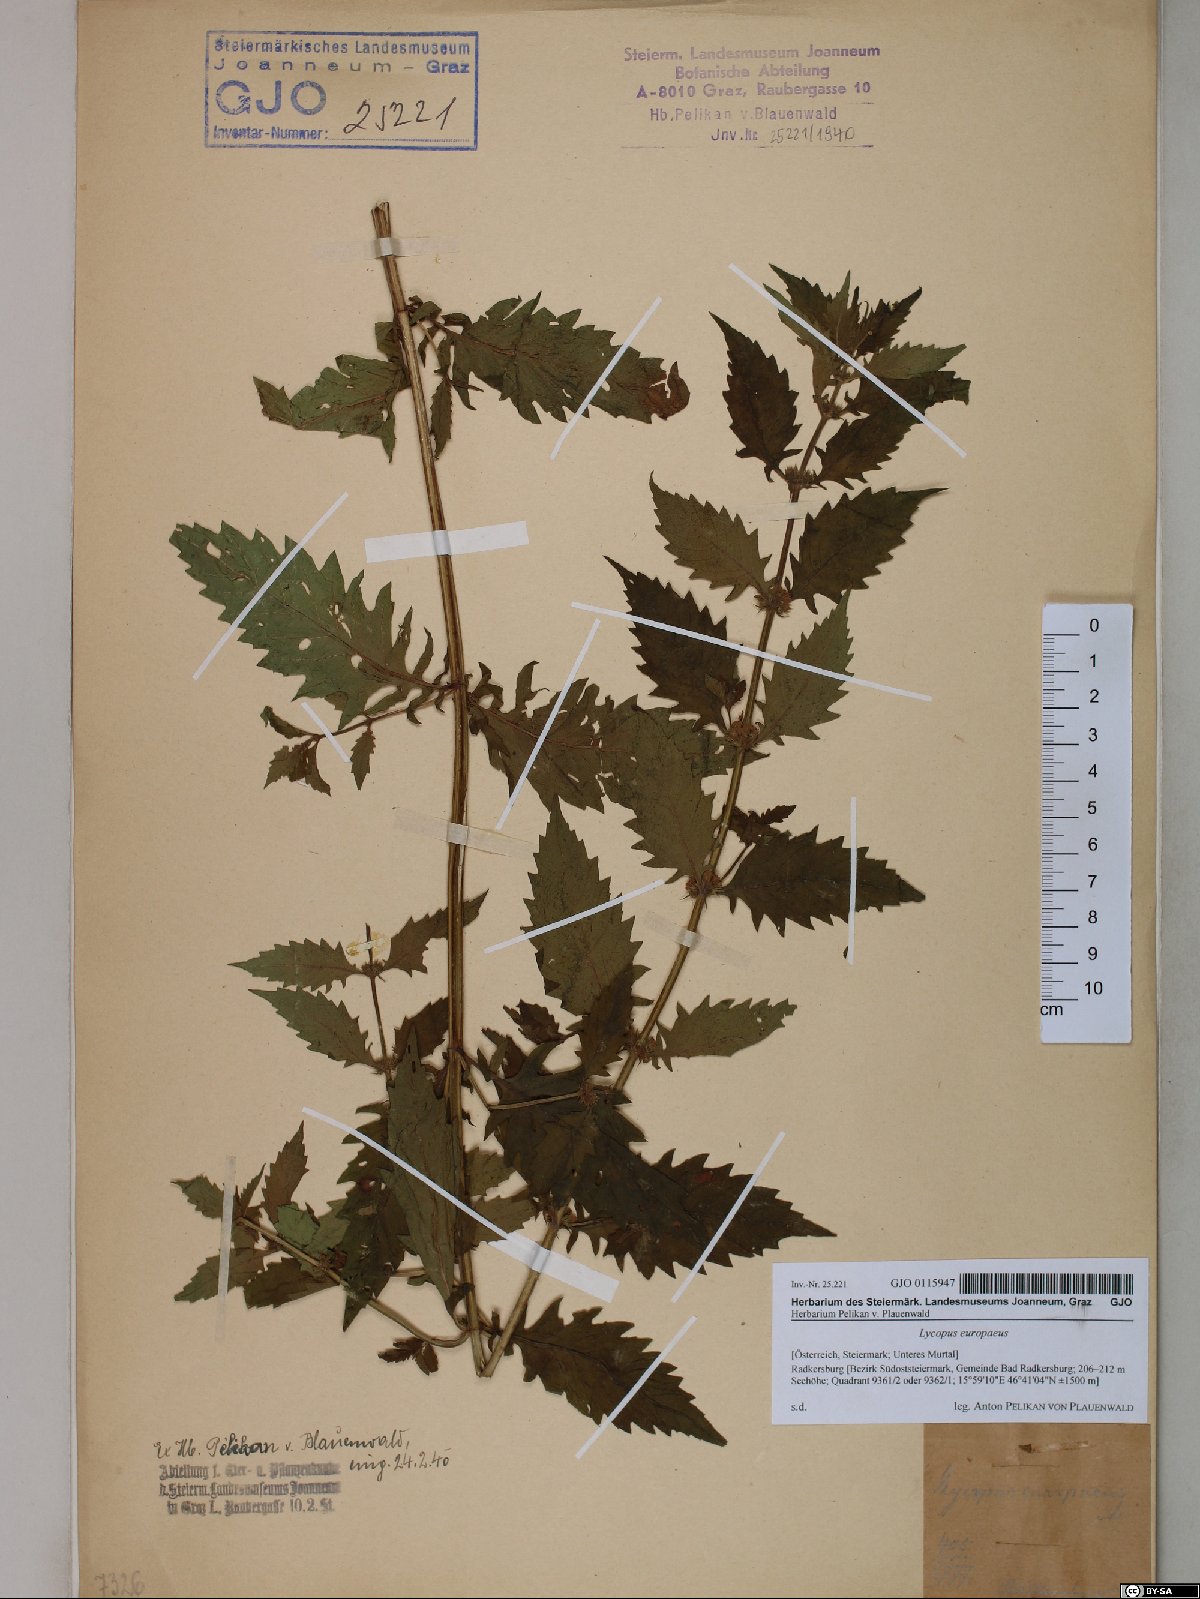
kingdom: Plantae
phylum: Tracheophyta
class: Magnoliopsida
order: Lamiales
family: Lamiaceae
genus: Lycopus
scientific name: Lycopus europaeus
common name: European bugleweed
